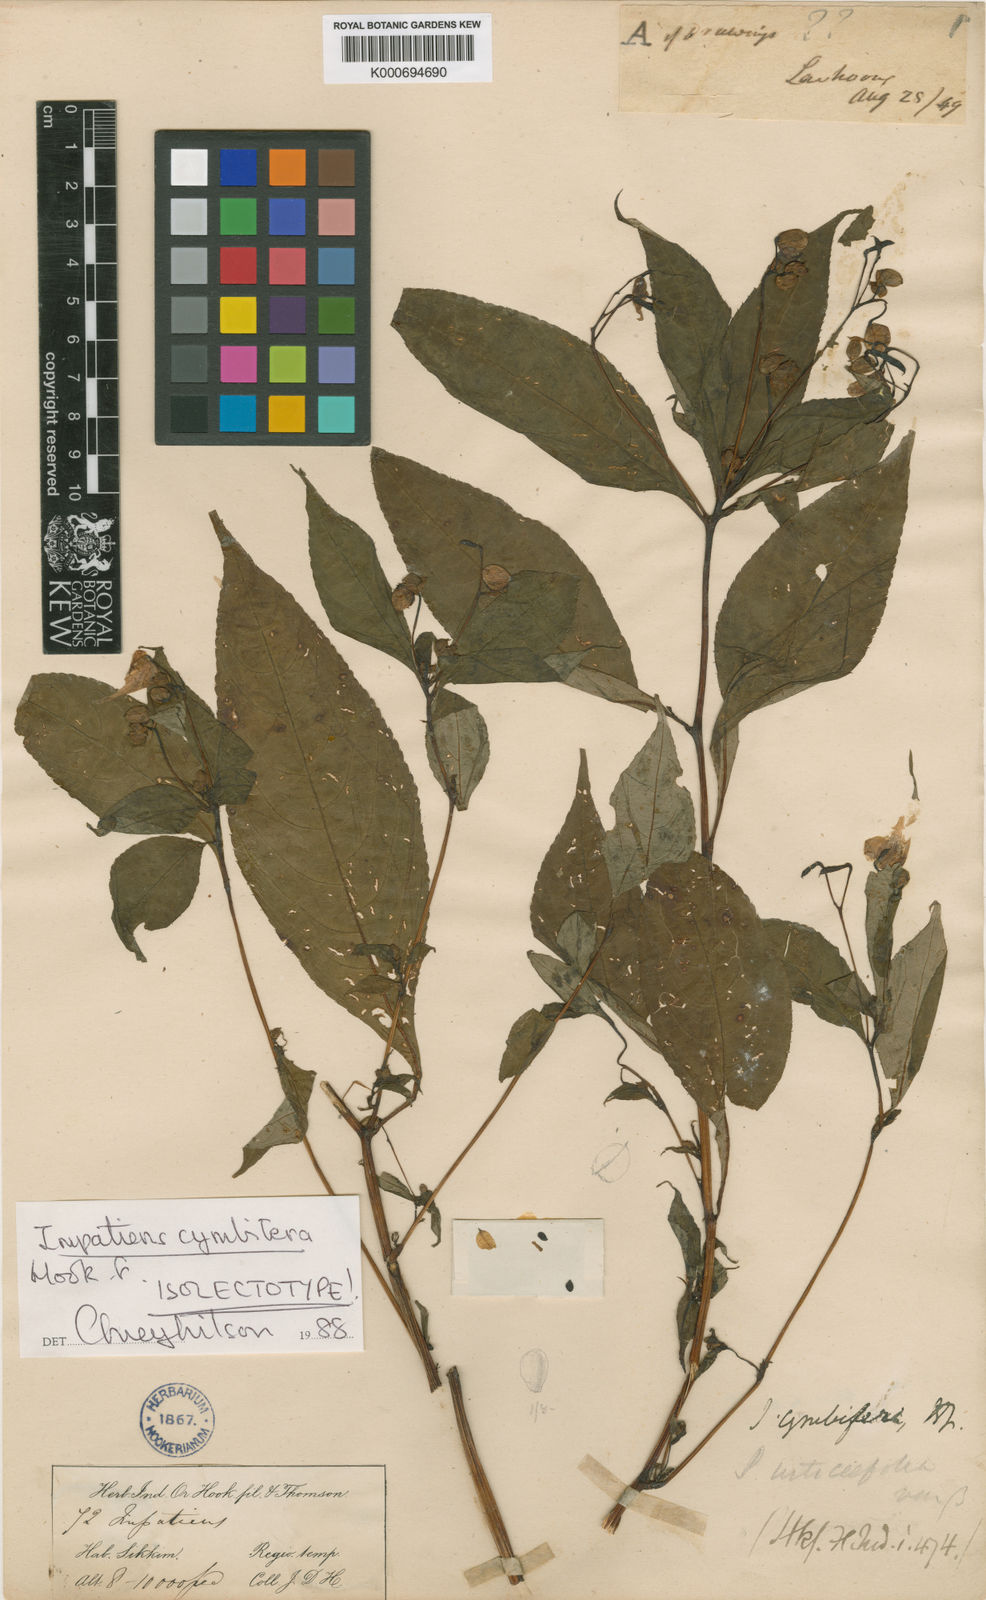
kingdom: Plantae
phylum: Tracheophyta
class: Magnoliopsida
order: Ericales
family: Balsaminaceae
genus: Impatiens
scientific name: Impatiens cymbifera
